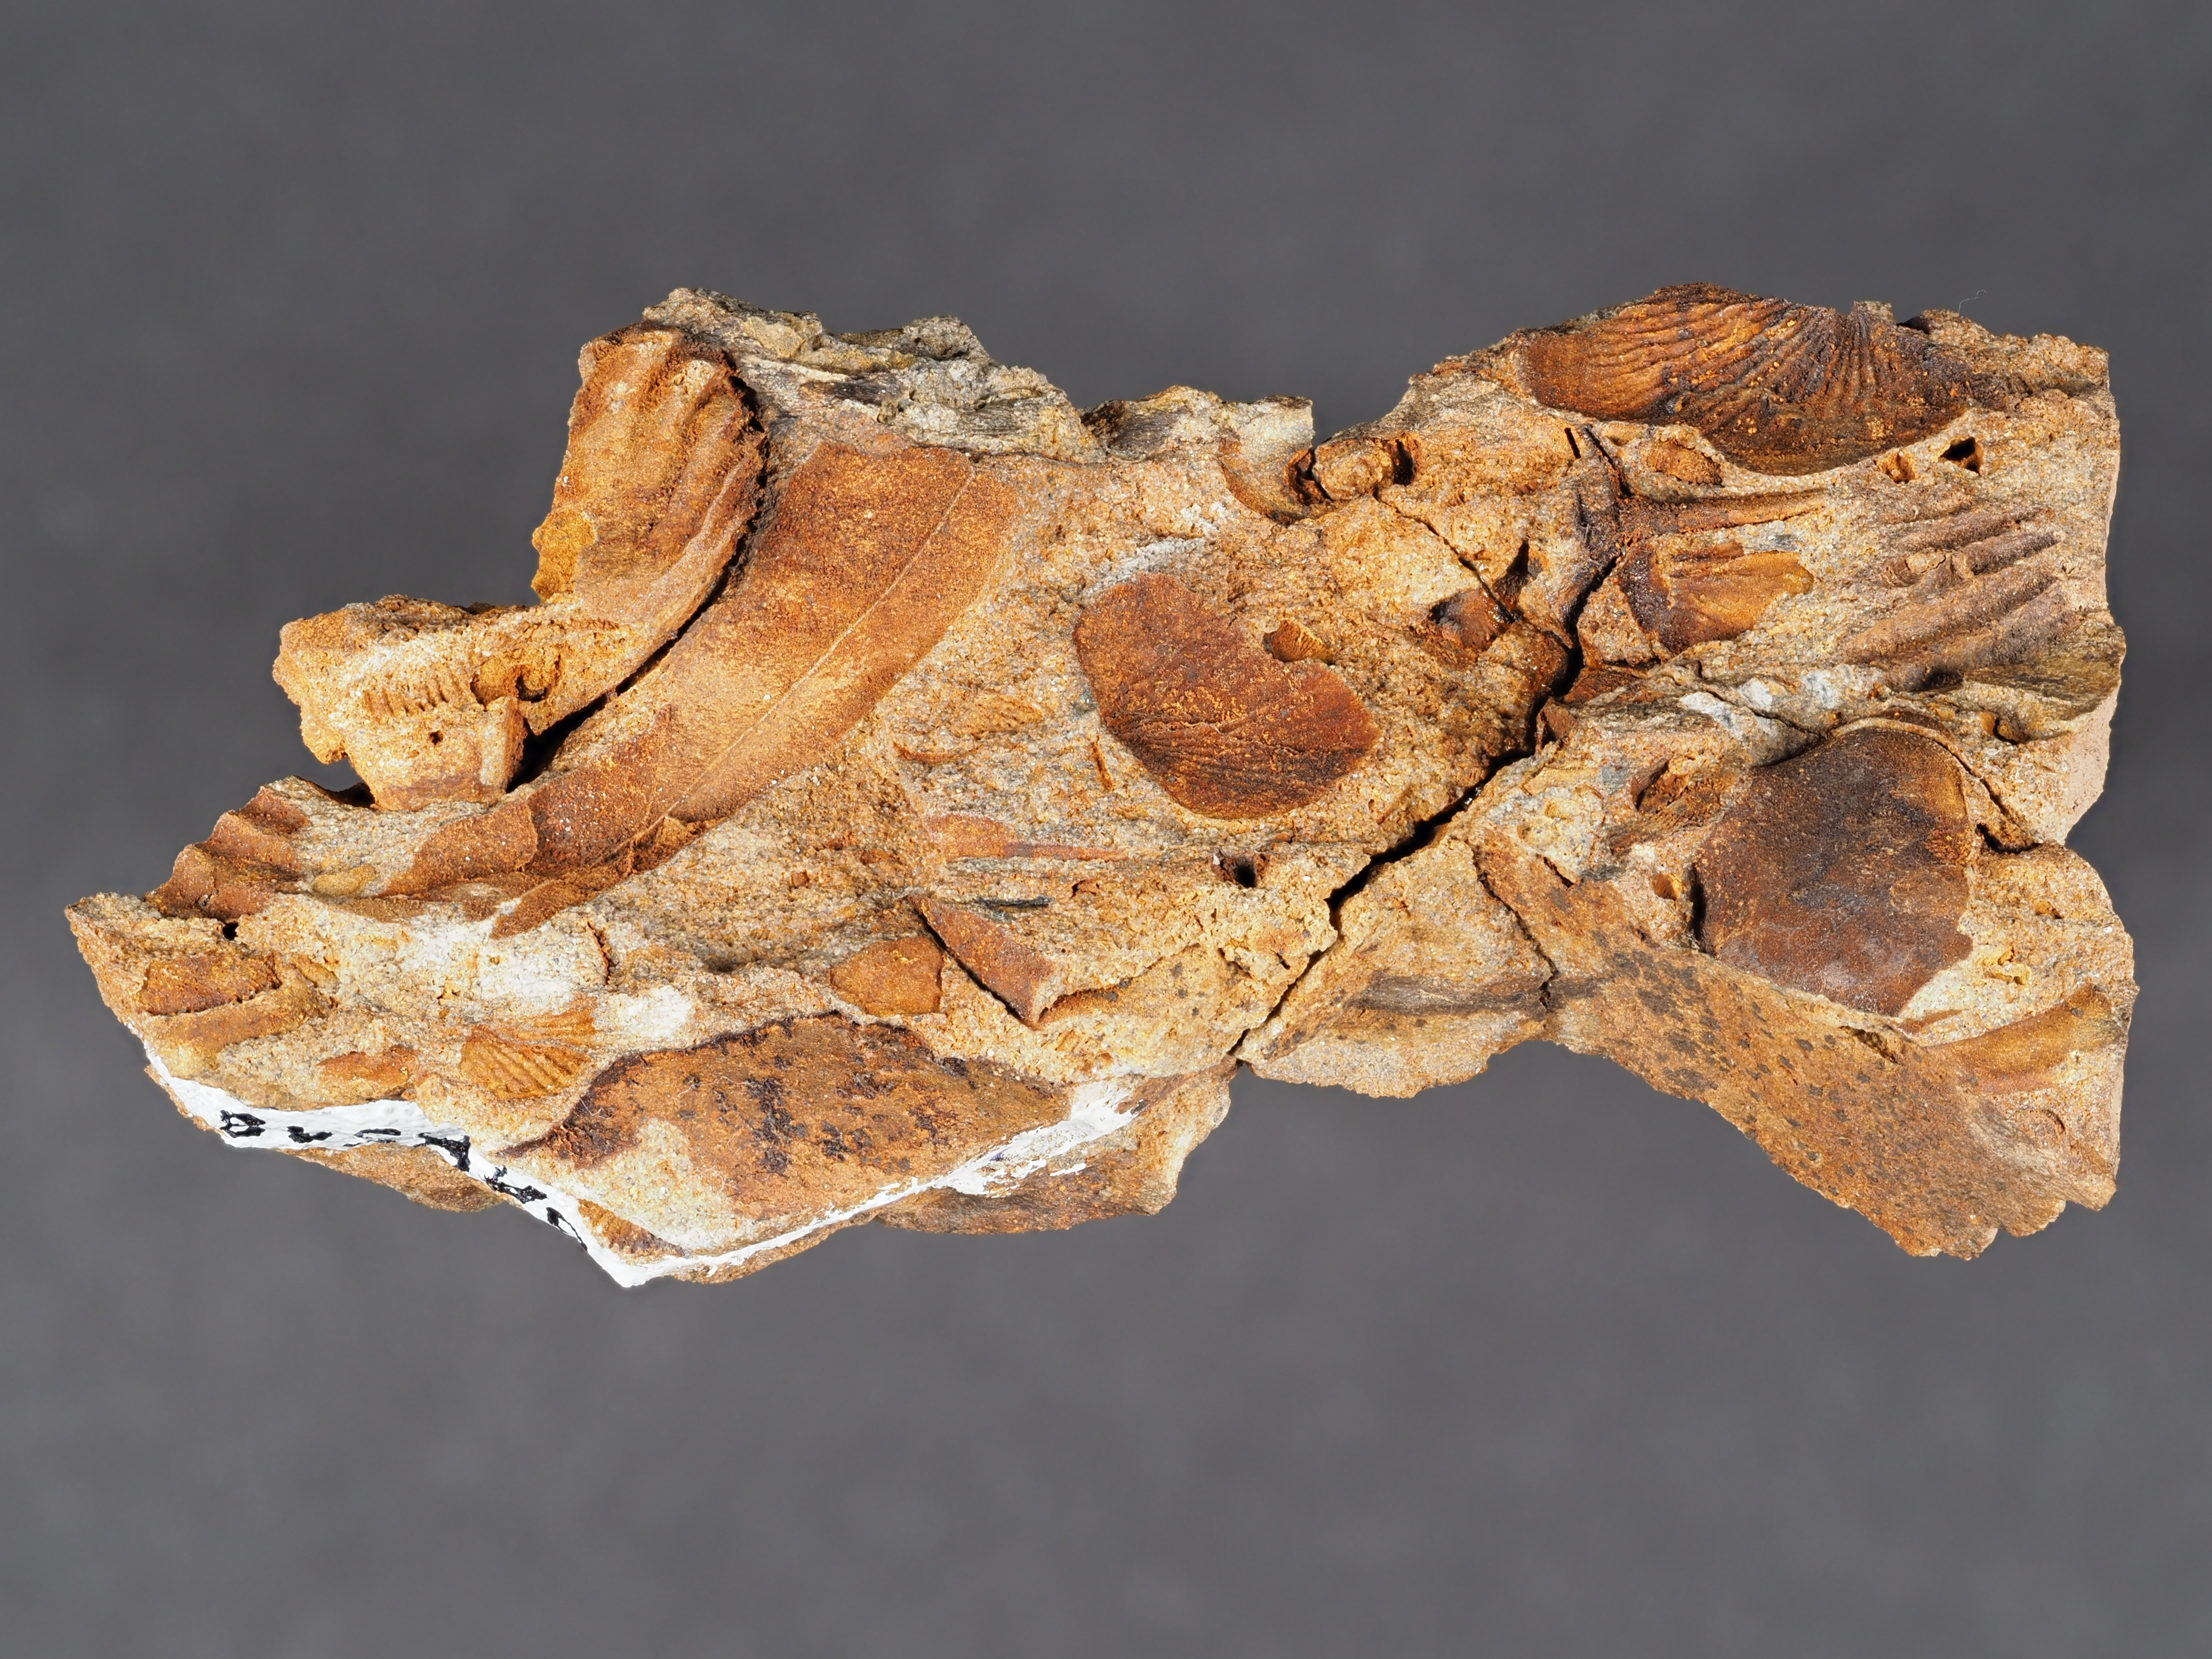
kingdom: Animalia
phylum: Arthropoda
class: Trilobita
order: Phacopida
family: Homalonotidae
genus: Digonus
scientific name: Digonus
